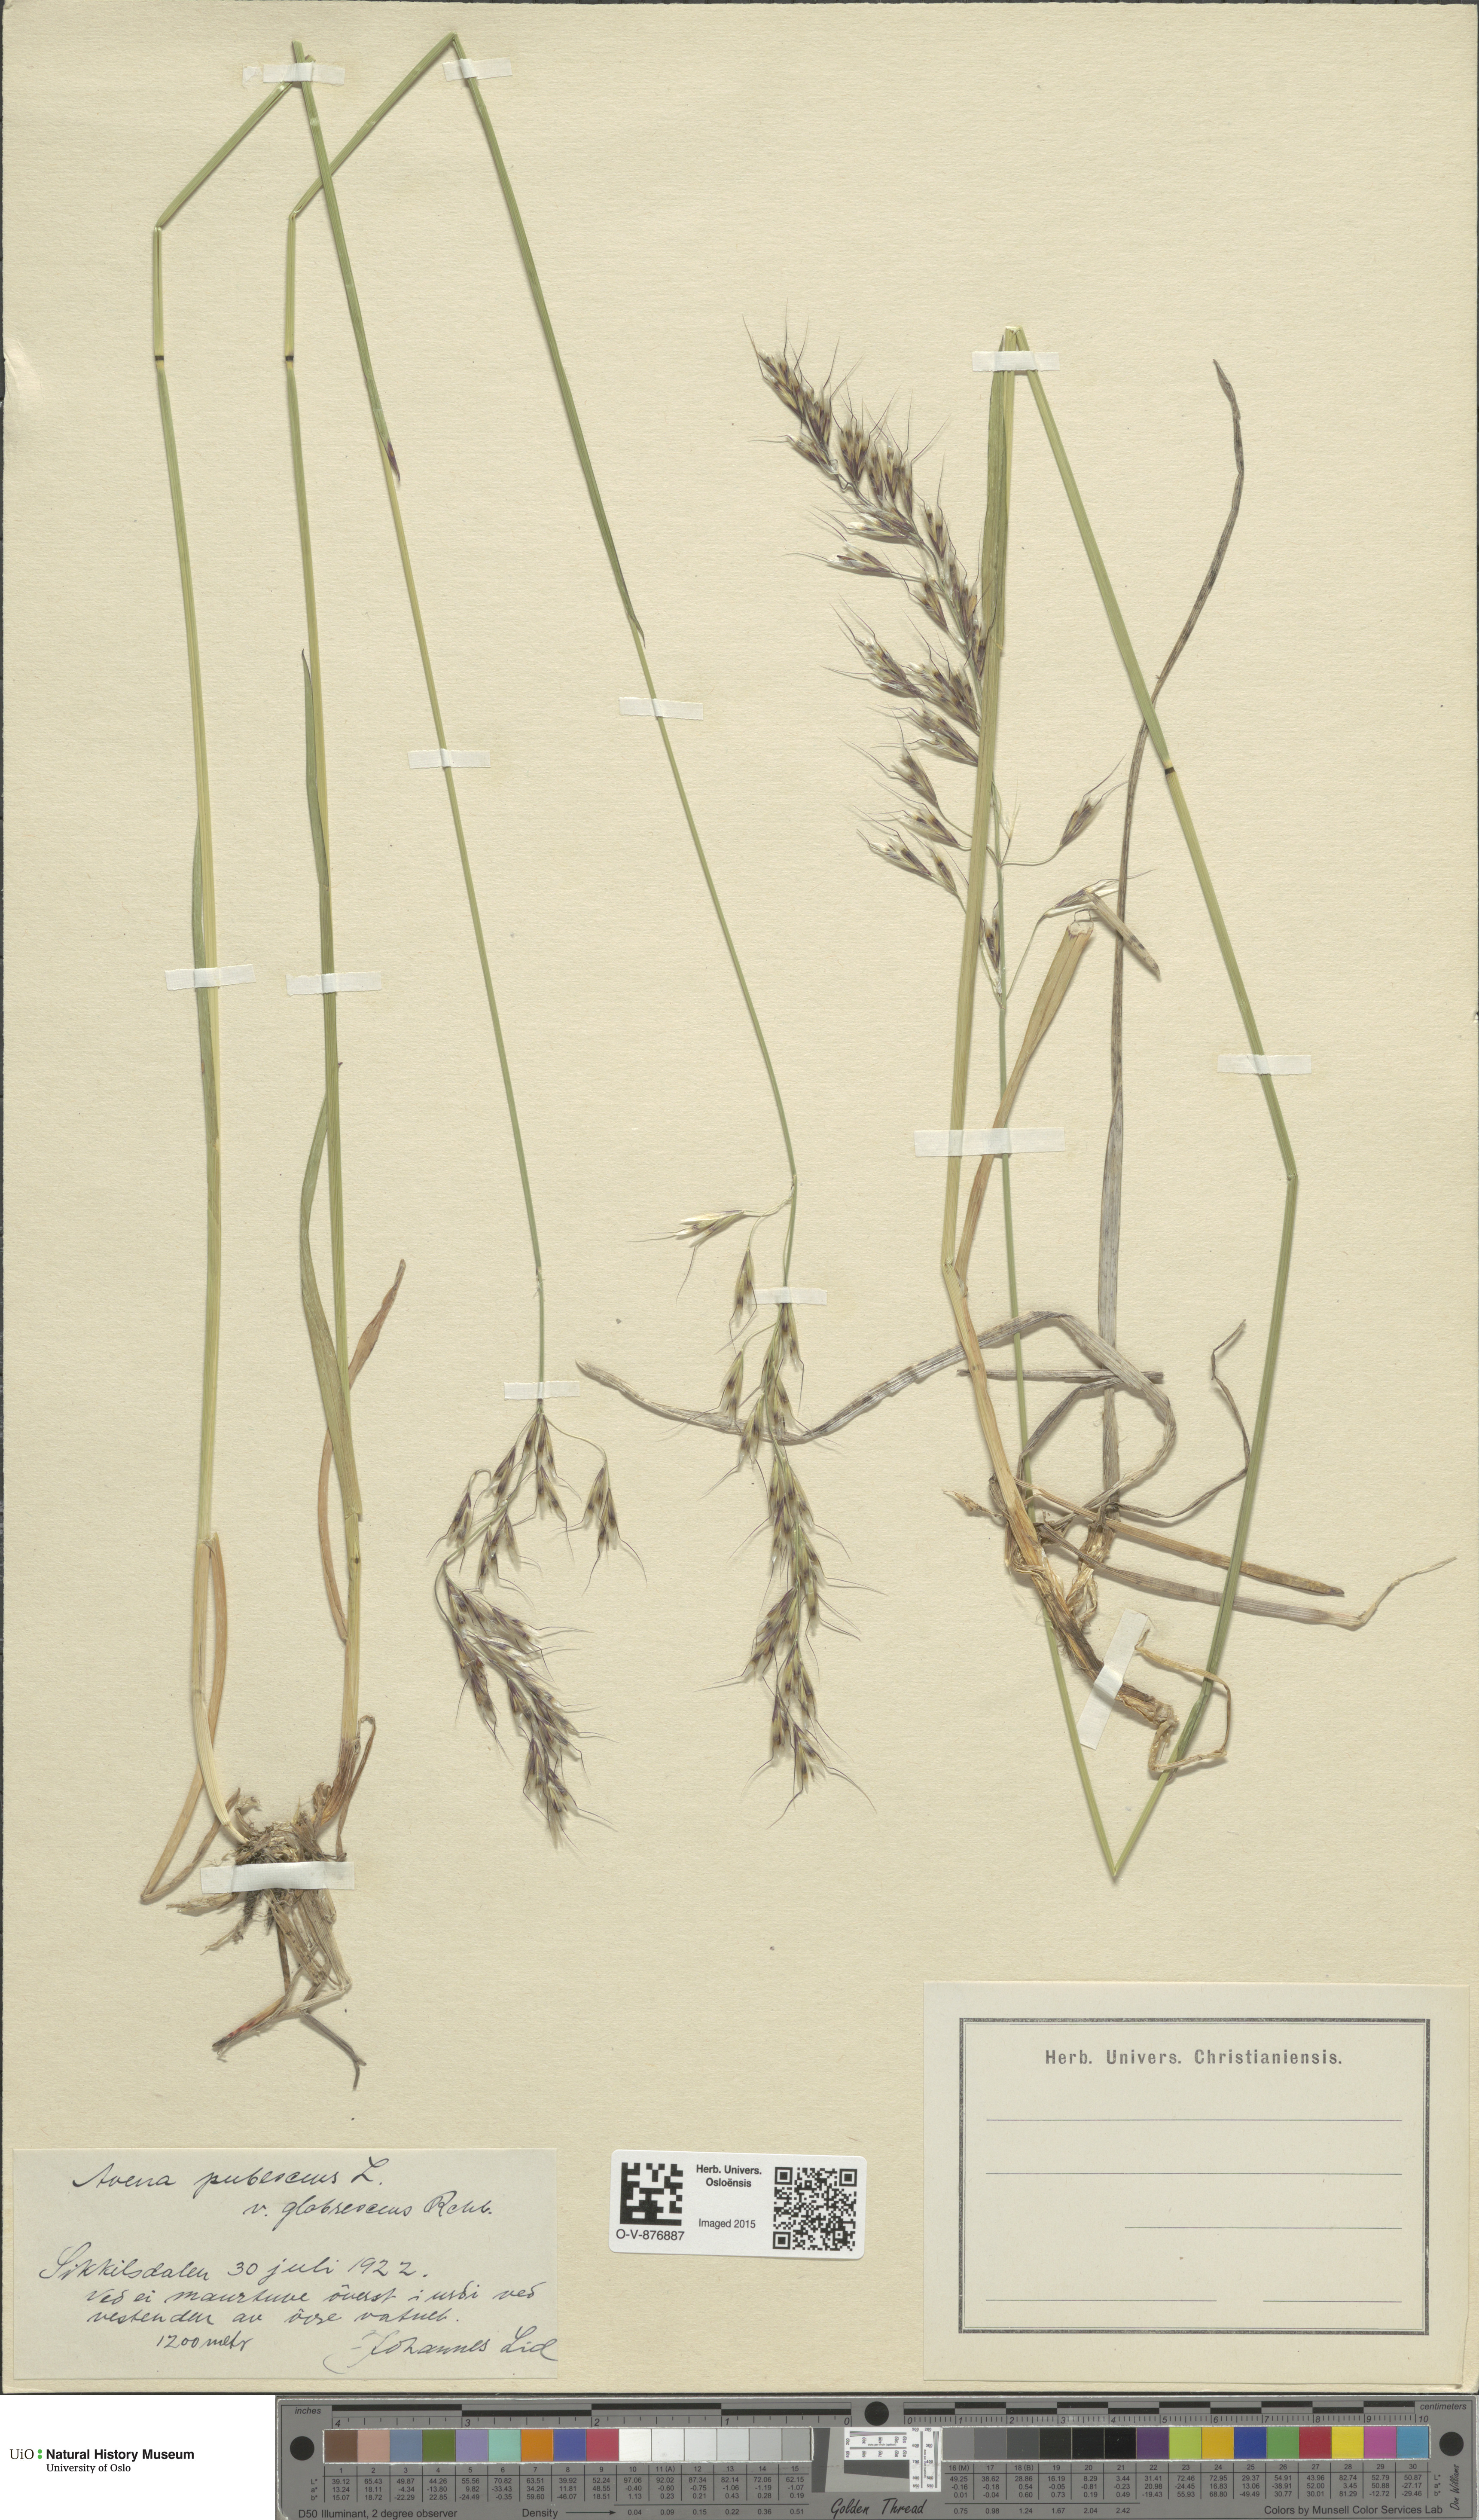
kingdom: Plantae
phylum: Tracheophyta
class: Liliopsida
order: Poales
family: Poaceae
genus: Avenula
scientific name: Avenula pubescens
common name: Downy alpine oatgrass
